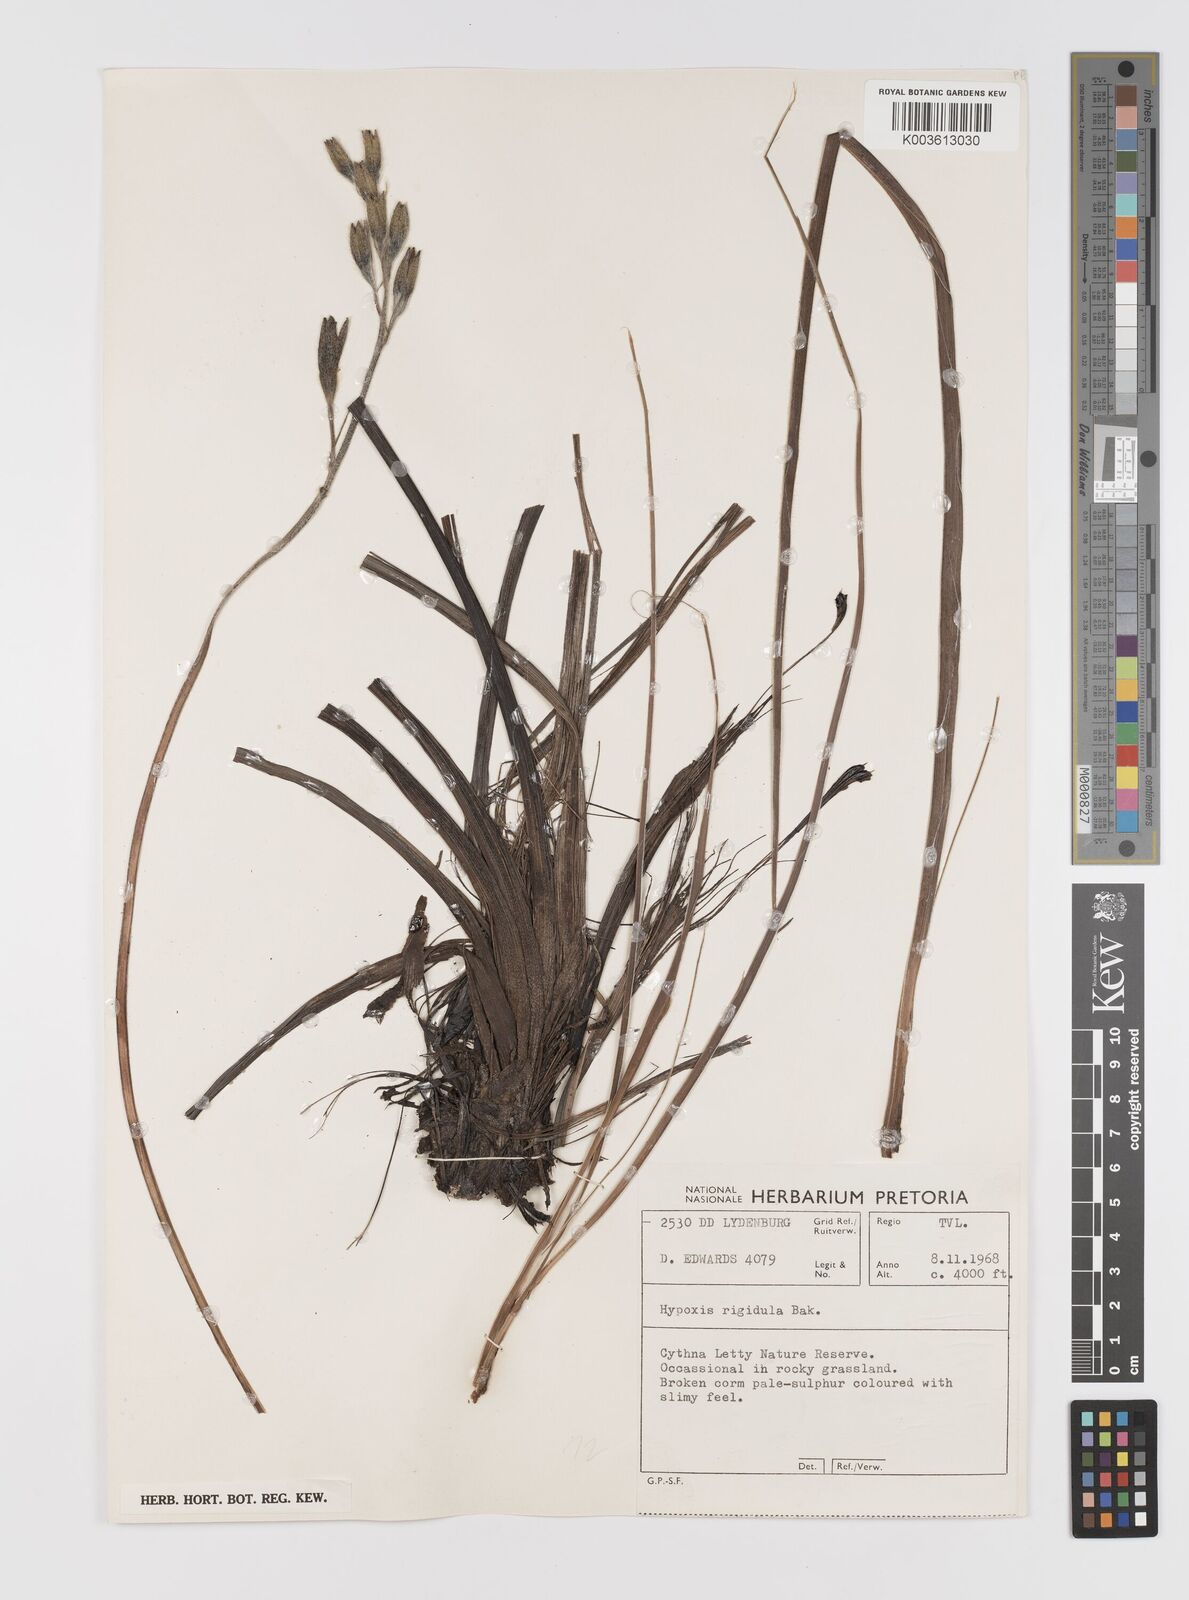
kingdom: Plantae
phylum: Tracheophyta
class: Liliopsida
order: Asparagales
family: Hypoxidaceae
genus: Hypoxis
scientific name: Hypoxis obtusa
